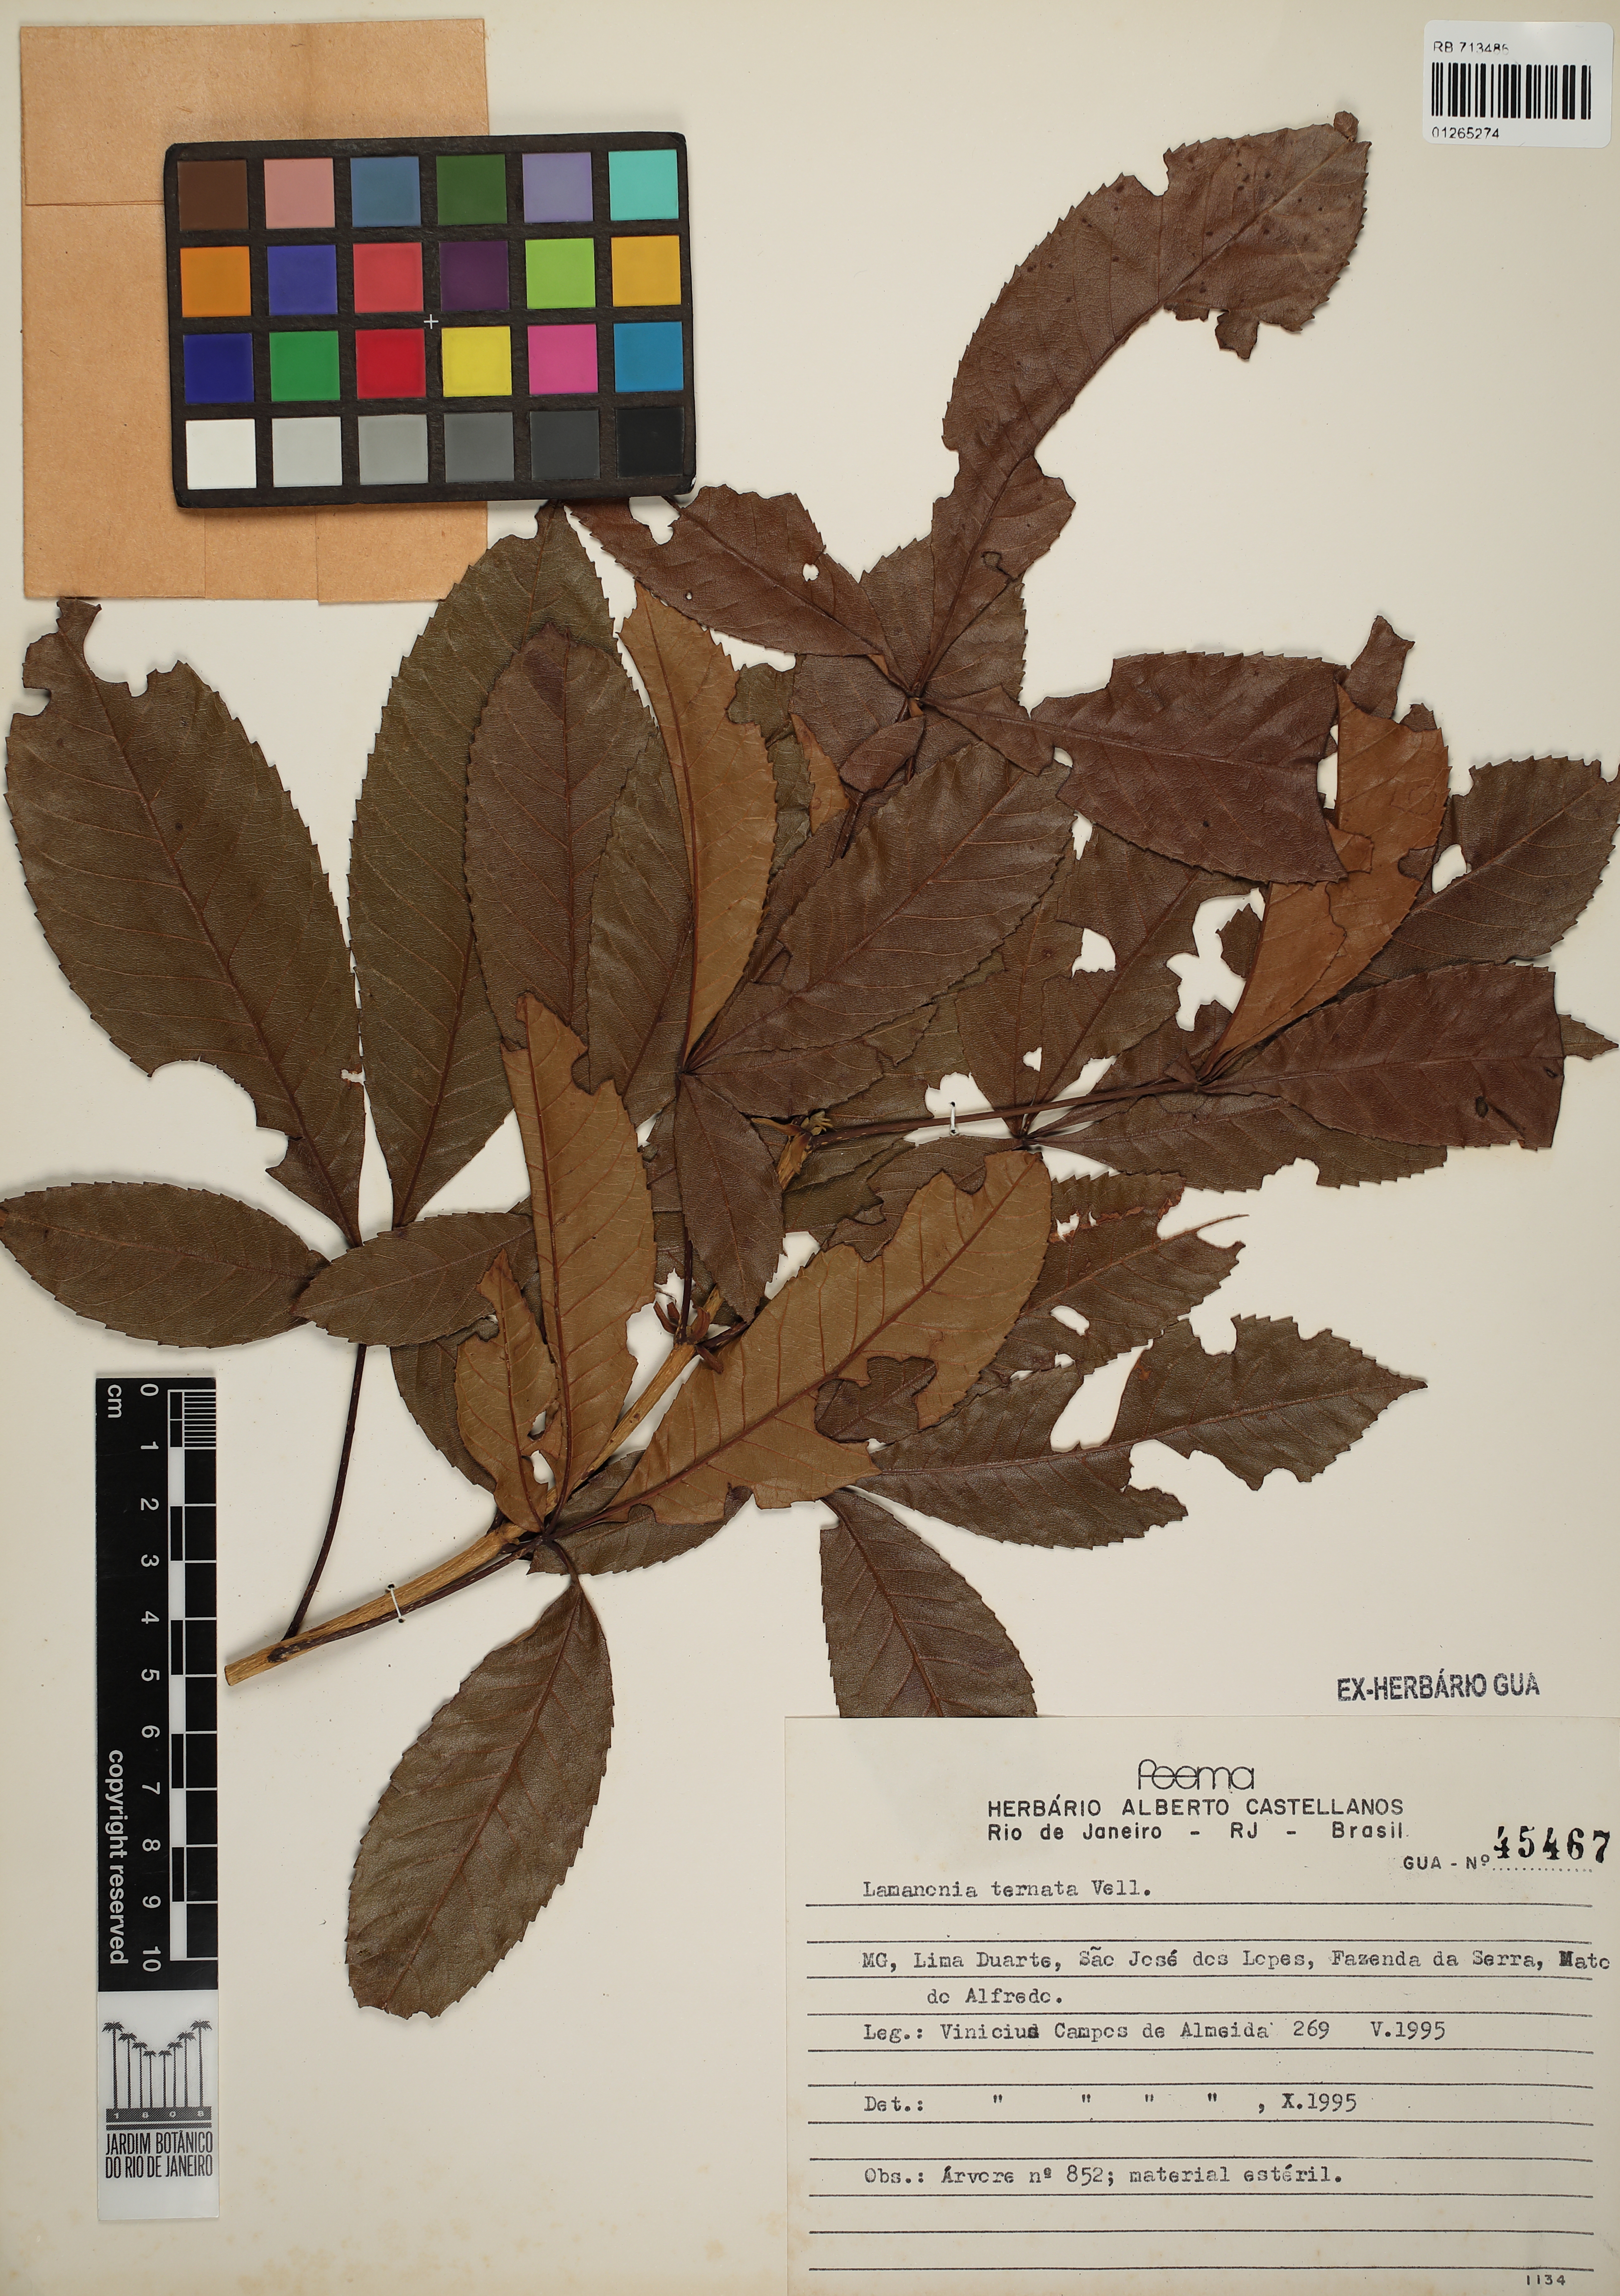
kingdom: Plantae
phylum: Tracheophyta
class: Magnoliopsida
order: Oxalidales
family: Cunoniaceae
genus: Lamanonia
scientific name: Lamanonia ternata
